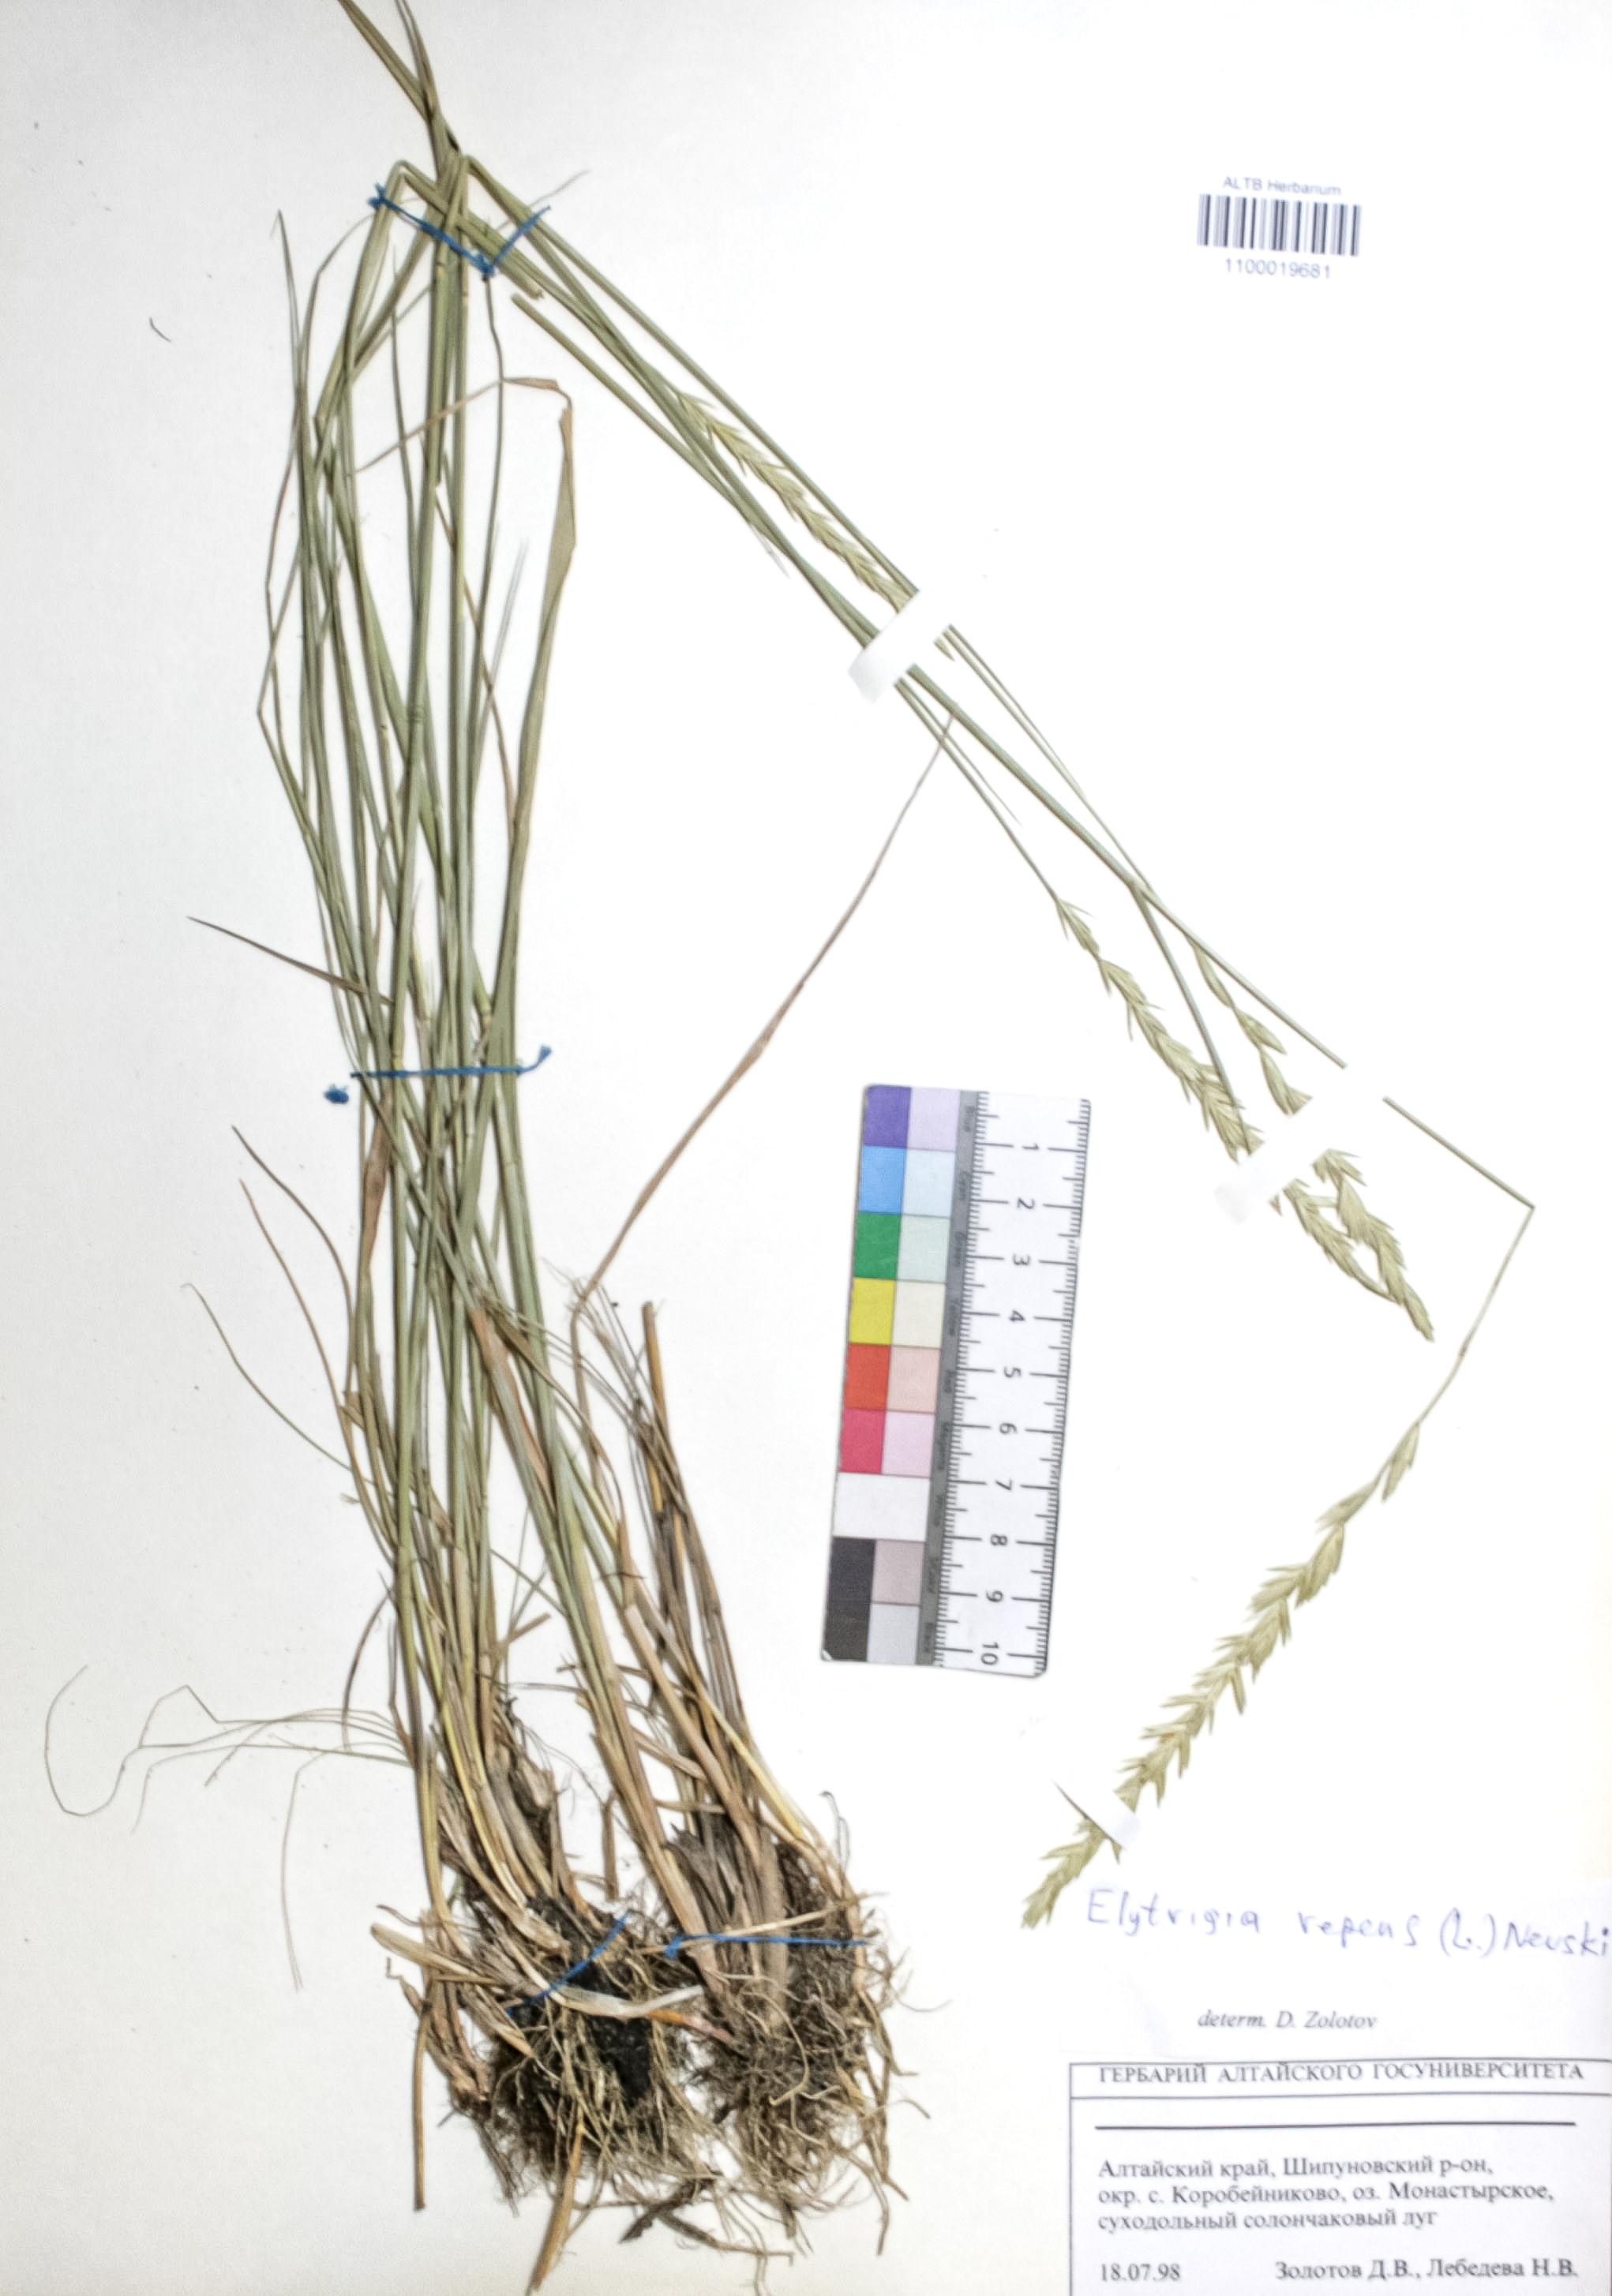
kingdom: Plantae
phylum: Tracheophyta
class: Liliopsida
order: Poales
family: Poaceae
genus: Elymus
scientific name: Elymus repens
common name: Quackgrass
